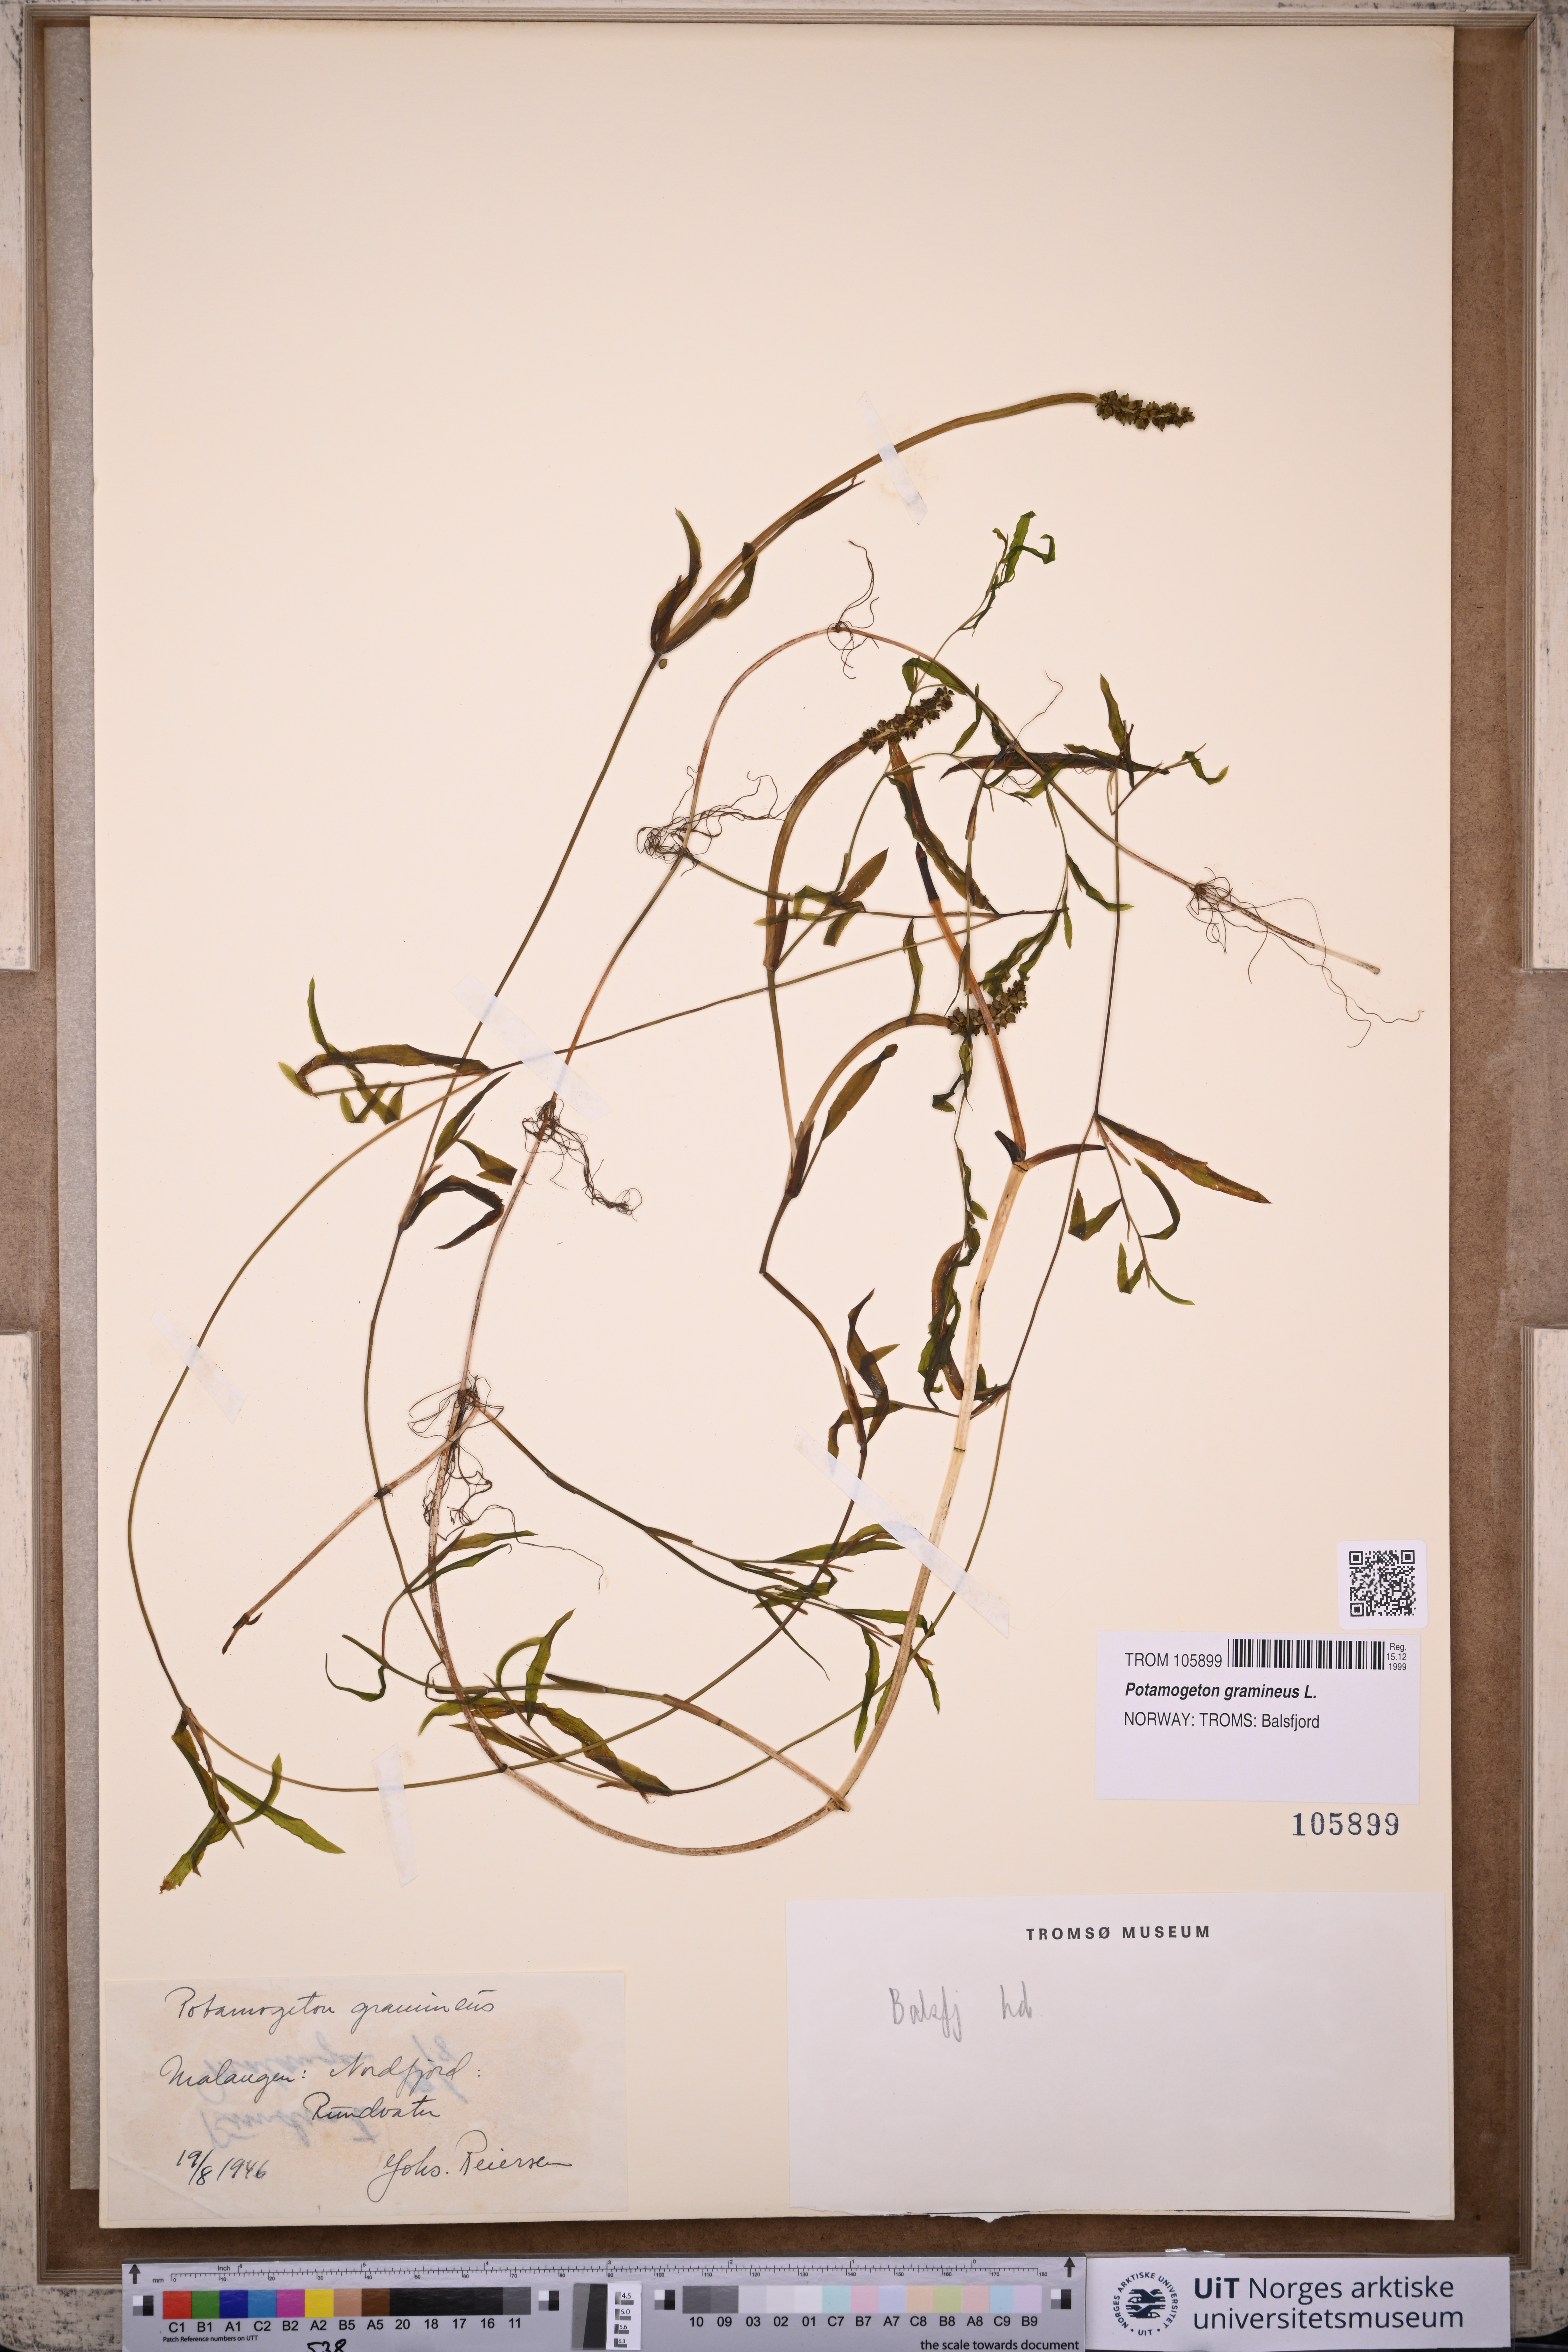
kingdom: Plantae
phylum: Tracheophyta
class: Liliopsida
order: Alismatales
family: Potamogetonaceae
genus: Potamogeton
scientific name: Potamogeton gramineus
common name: Various-leaved pondweed
